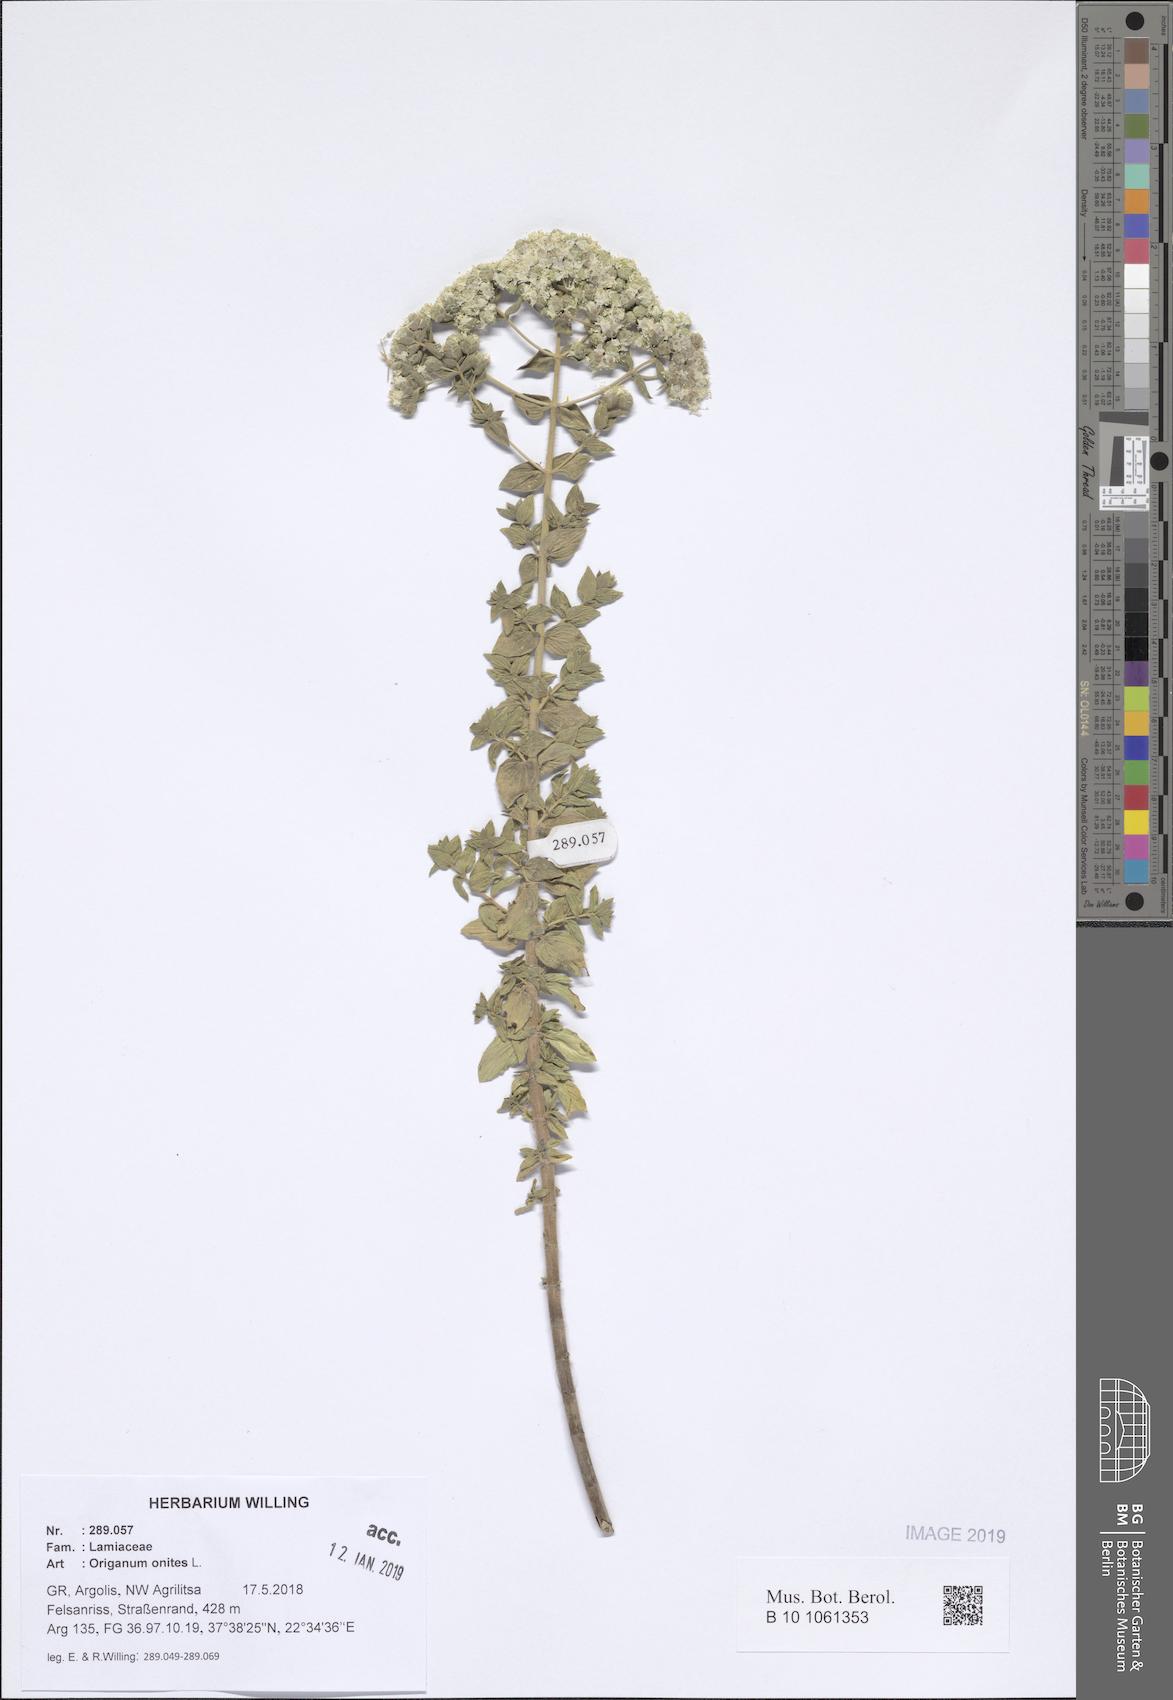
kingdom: Plantae
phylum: Tracheophyta
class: Magnoliopsida
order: Lamiales
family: Lamiaceae
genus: Origanum
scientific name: Origanum onites
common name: Turkish oregano
